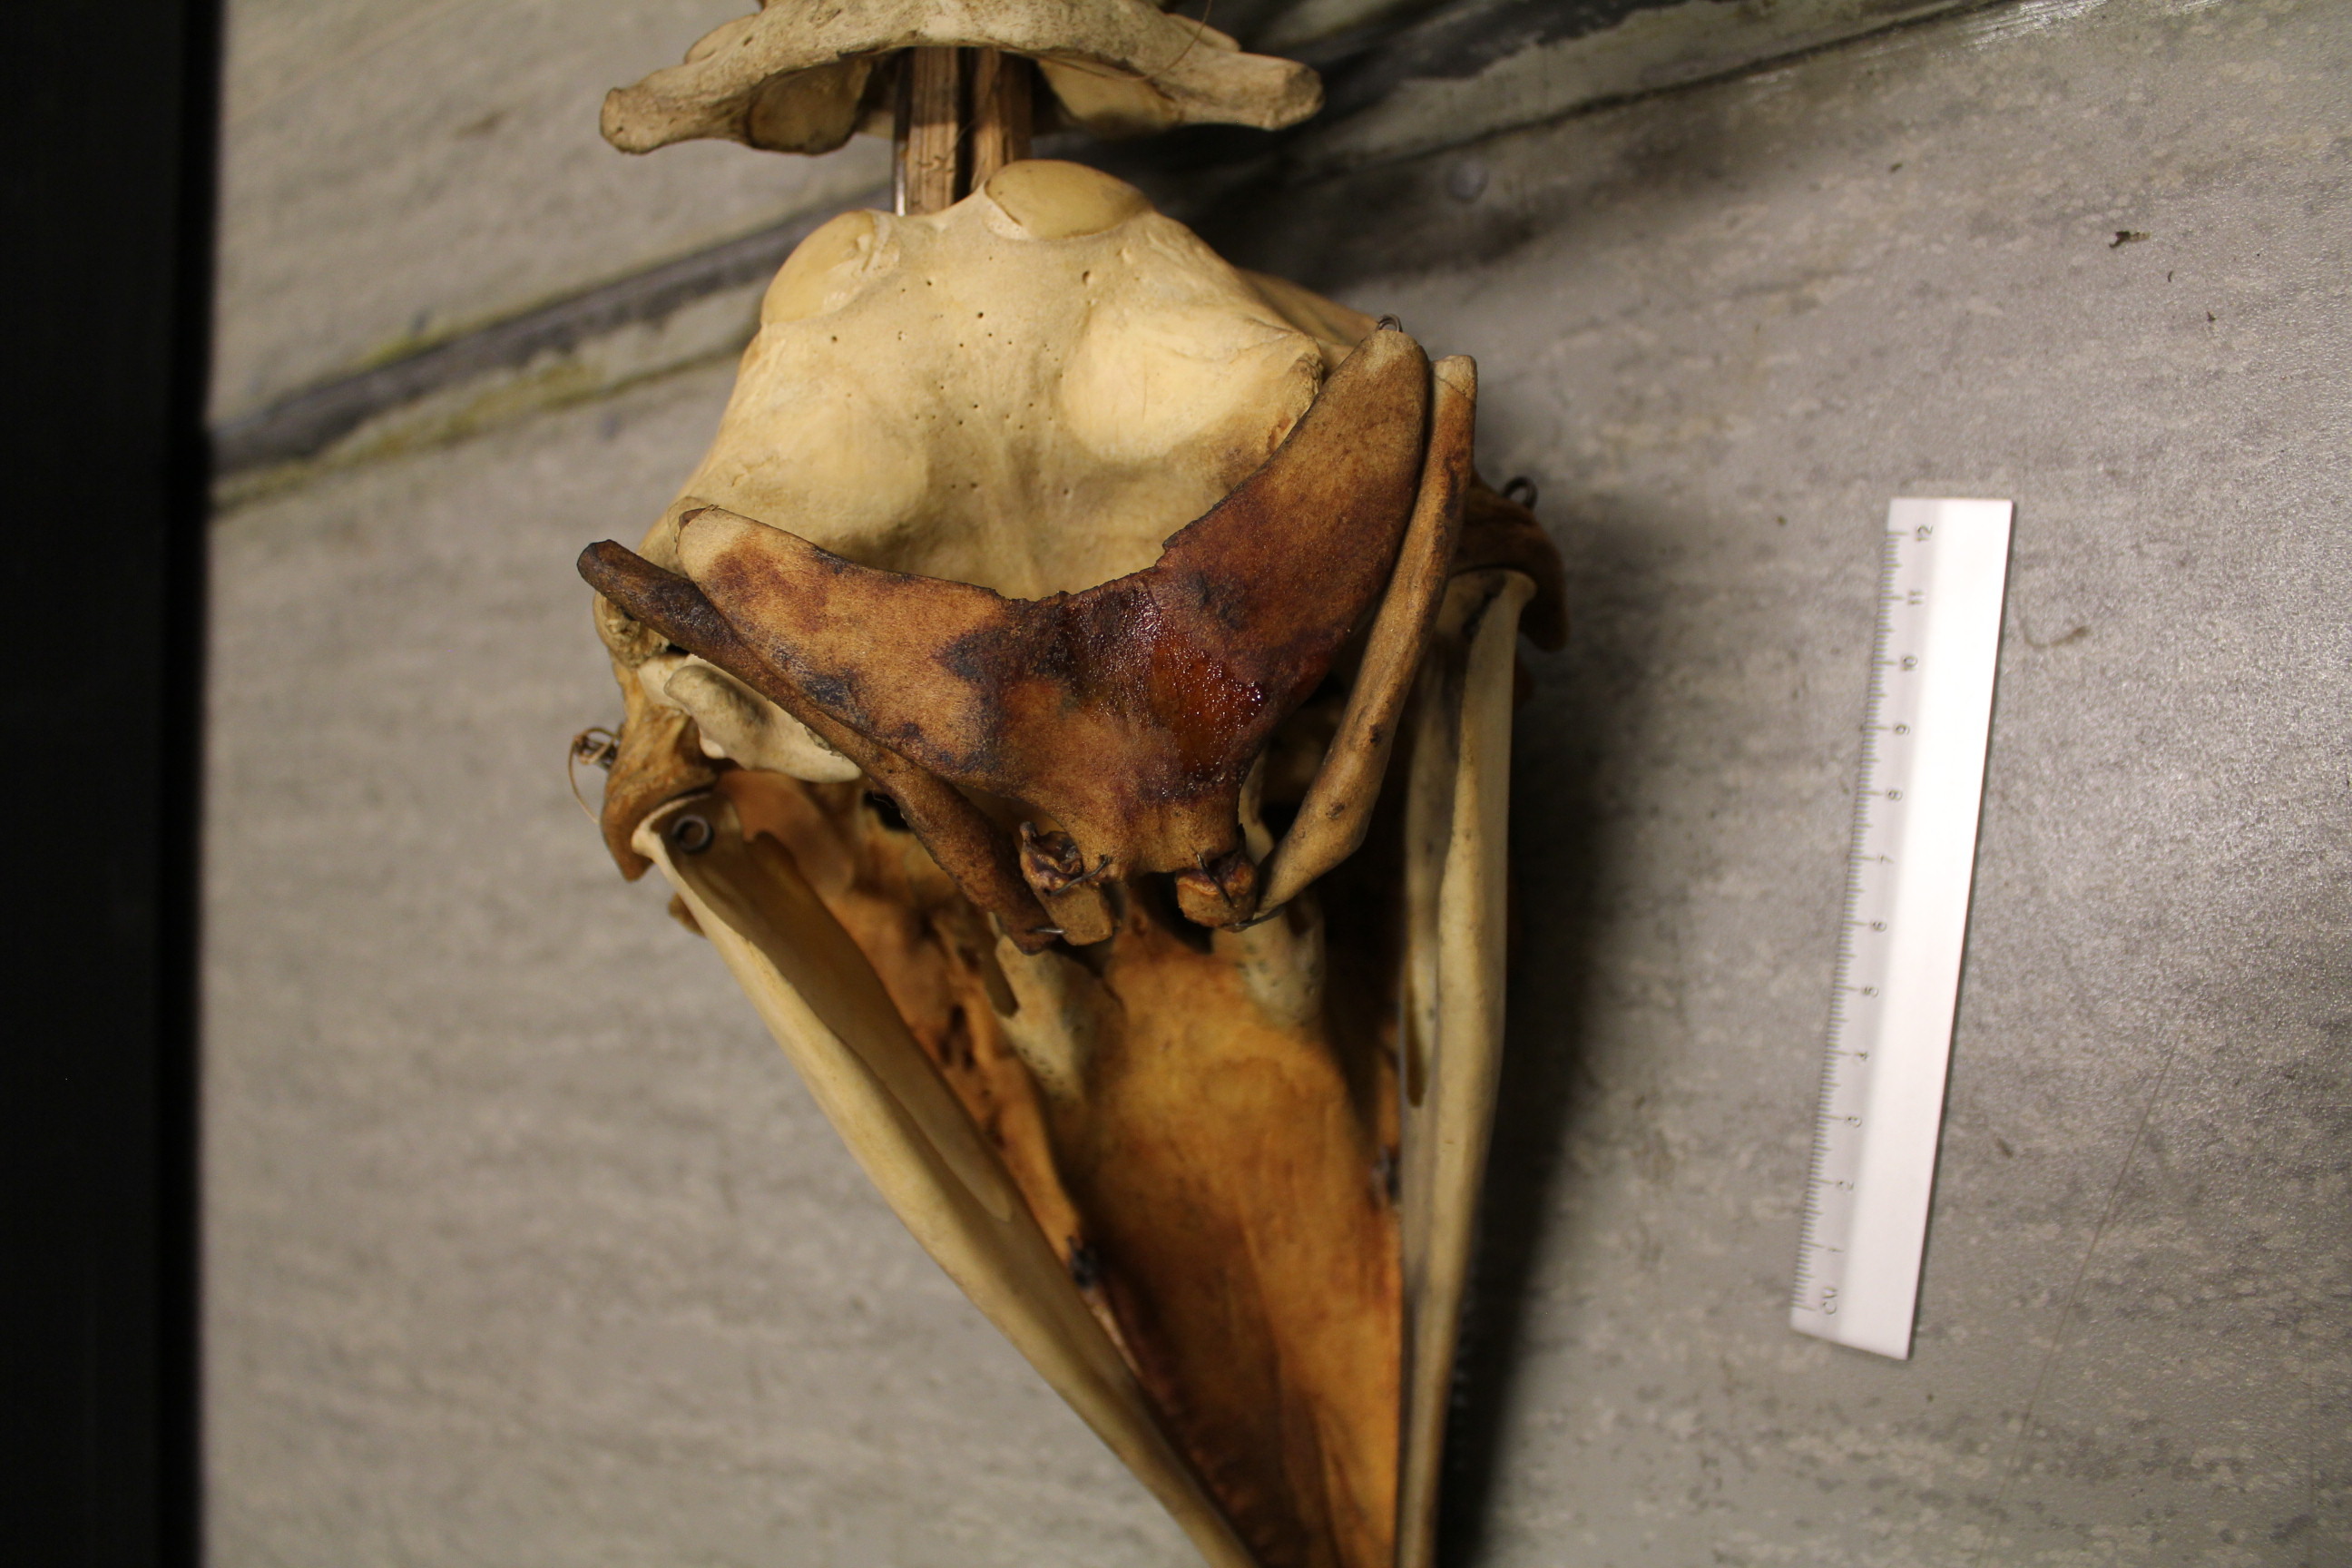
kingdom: Animalia
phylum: Chordata
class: Mammalia
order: Cetacea
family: Phocoenidae
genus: Phocoena
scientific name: Phocoena phocoena
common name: Harbor porpoise
